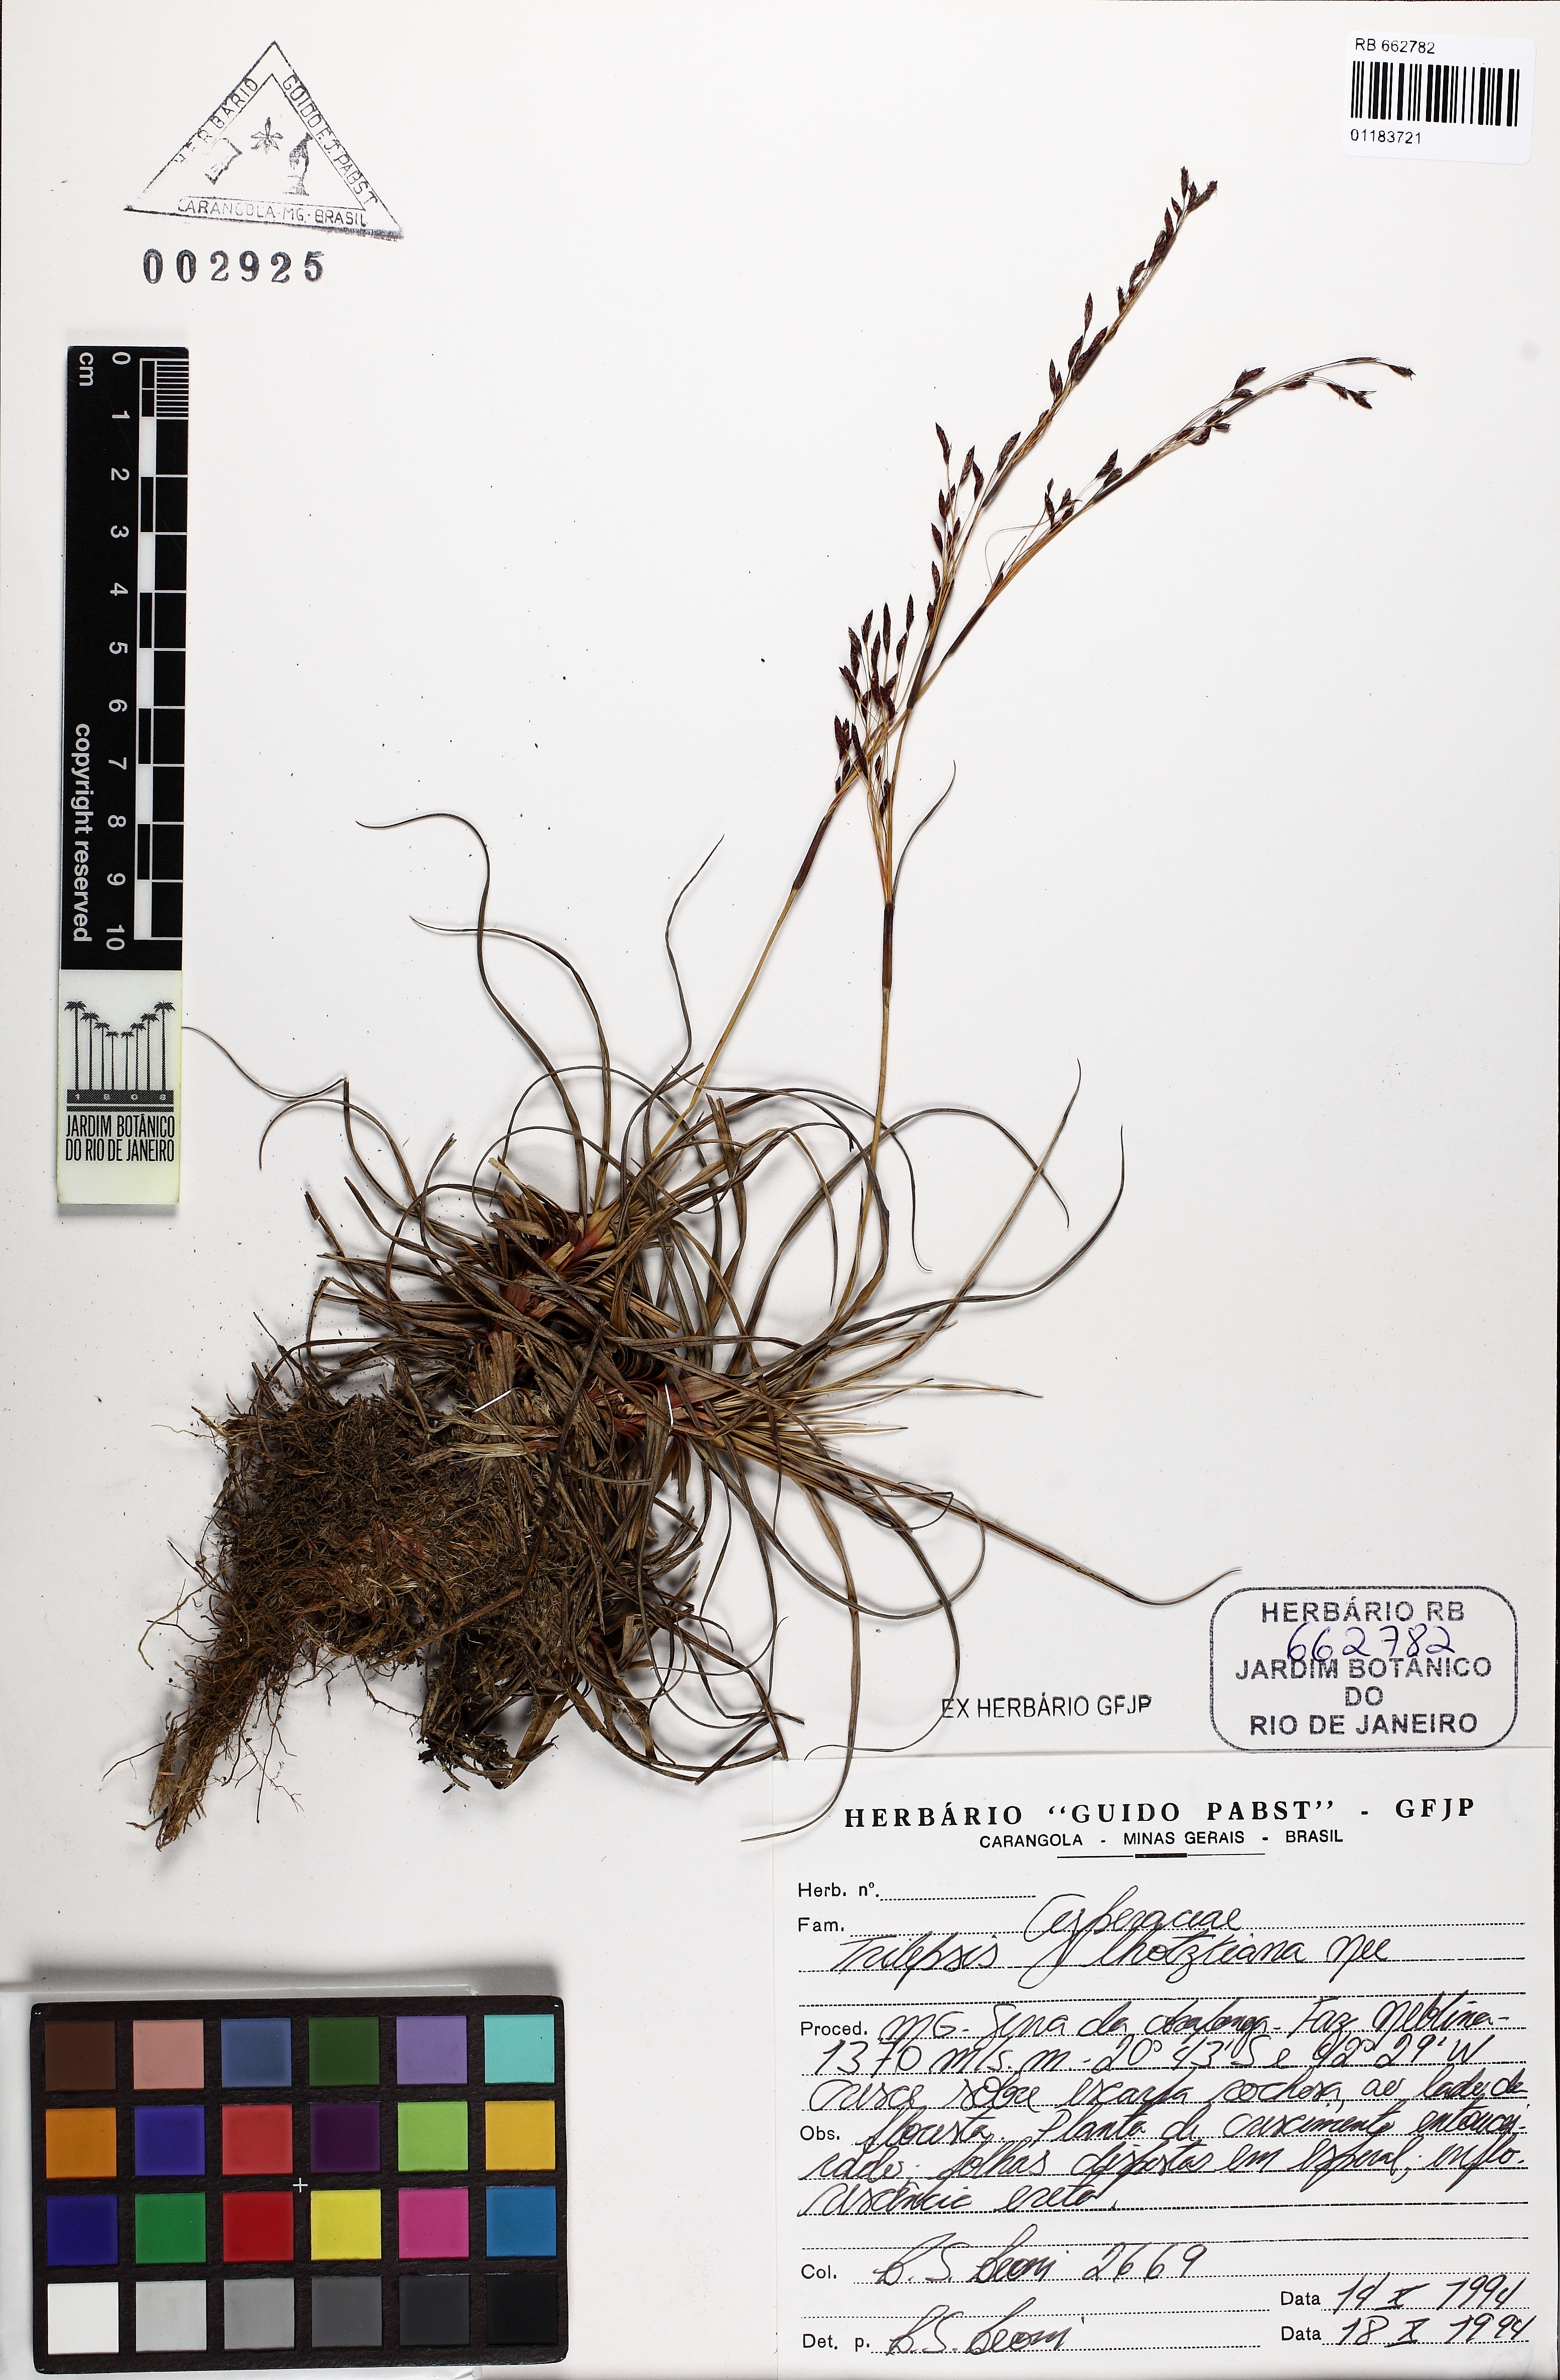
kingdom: Plantae
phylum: Tracheophyta
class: Liliopsida
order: Poales
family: Cyperaceae
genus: Trilepis
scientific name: Trilepis lhotzkiana
